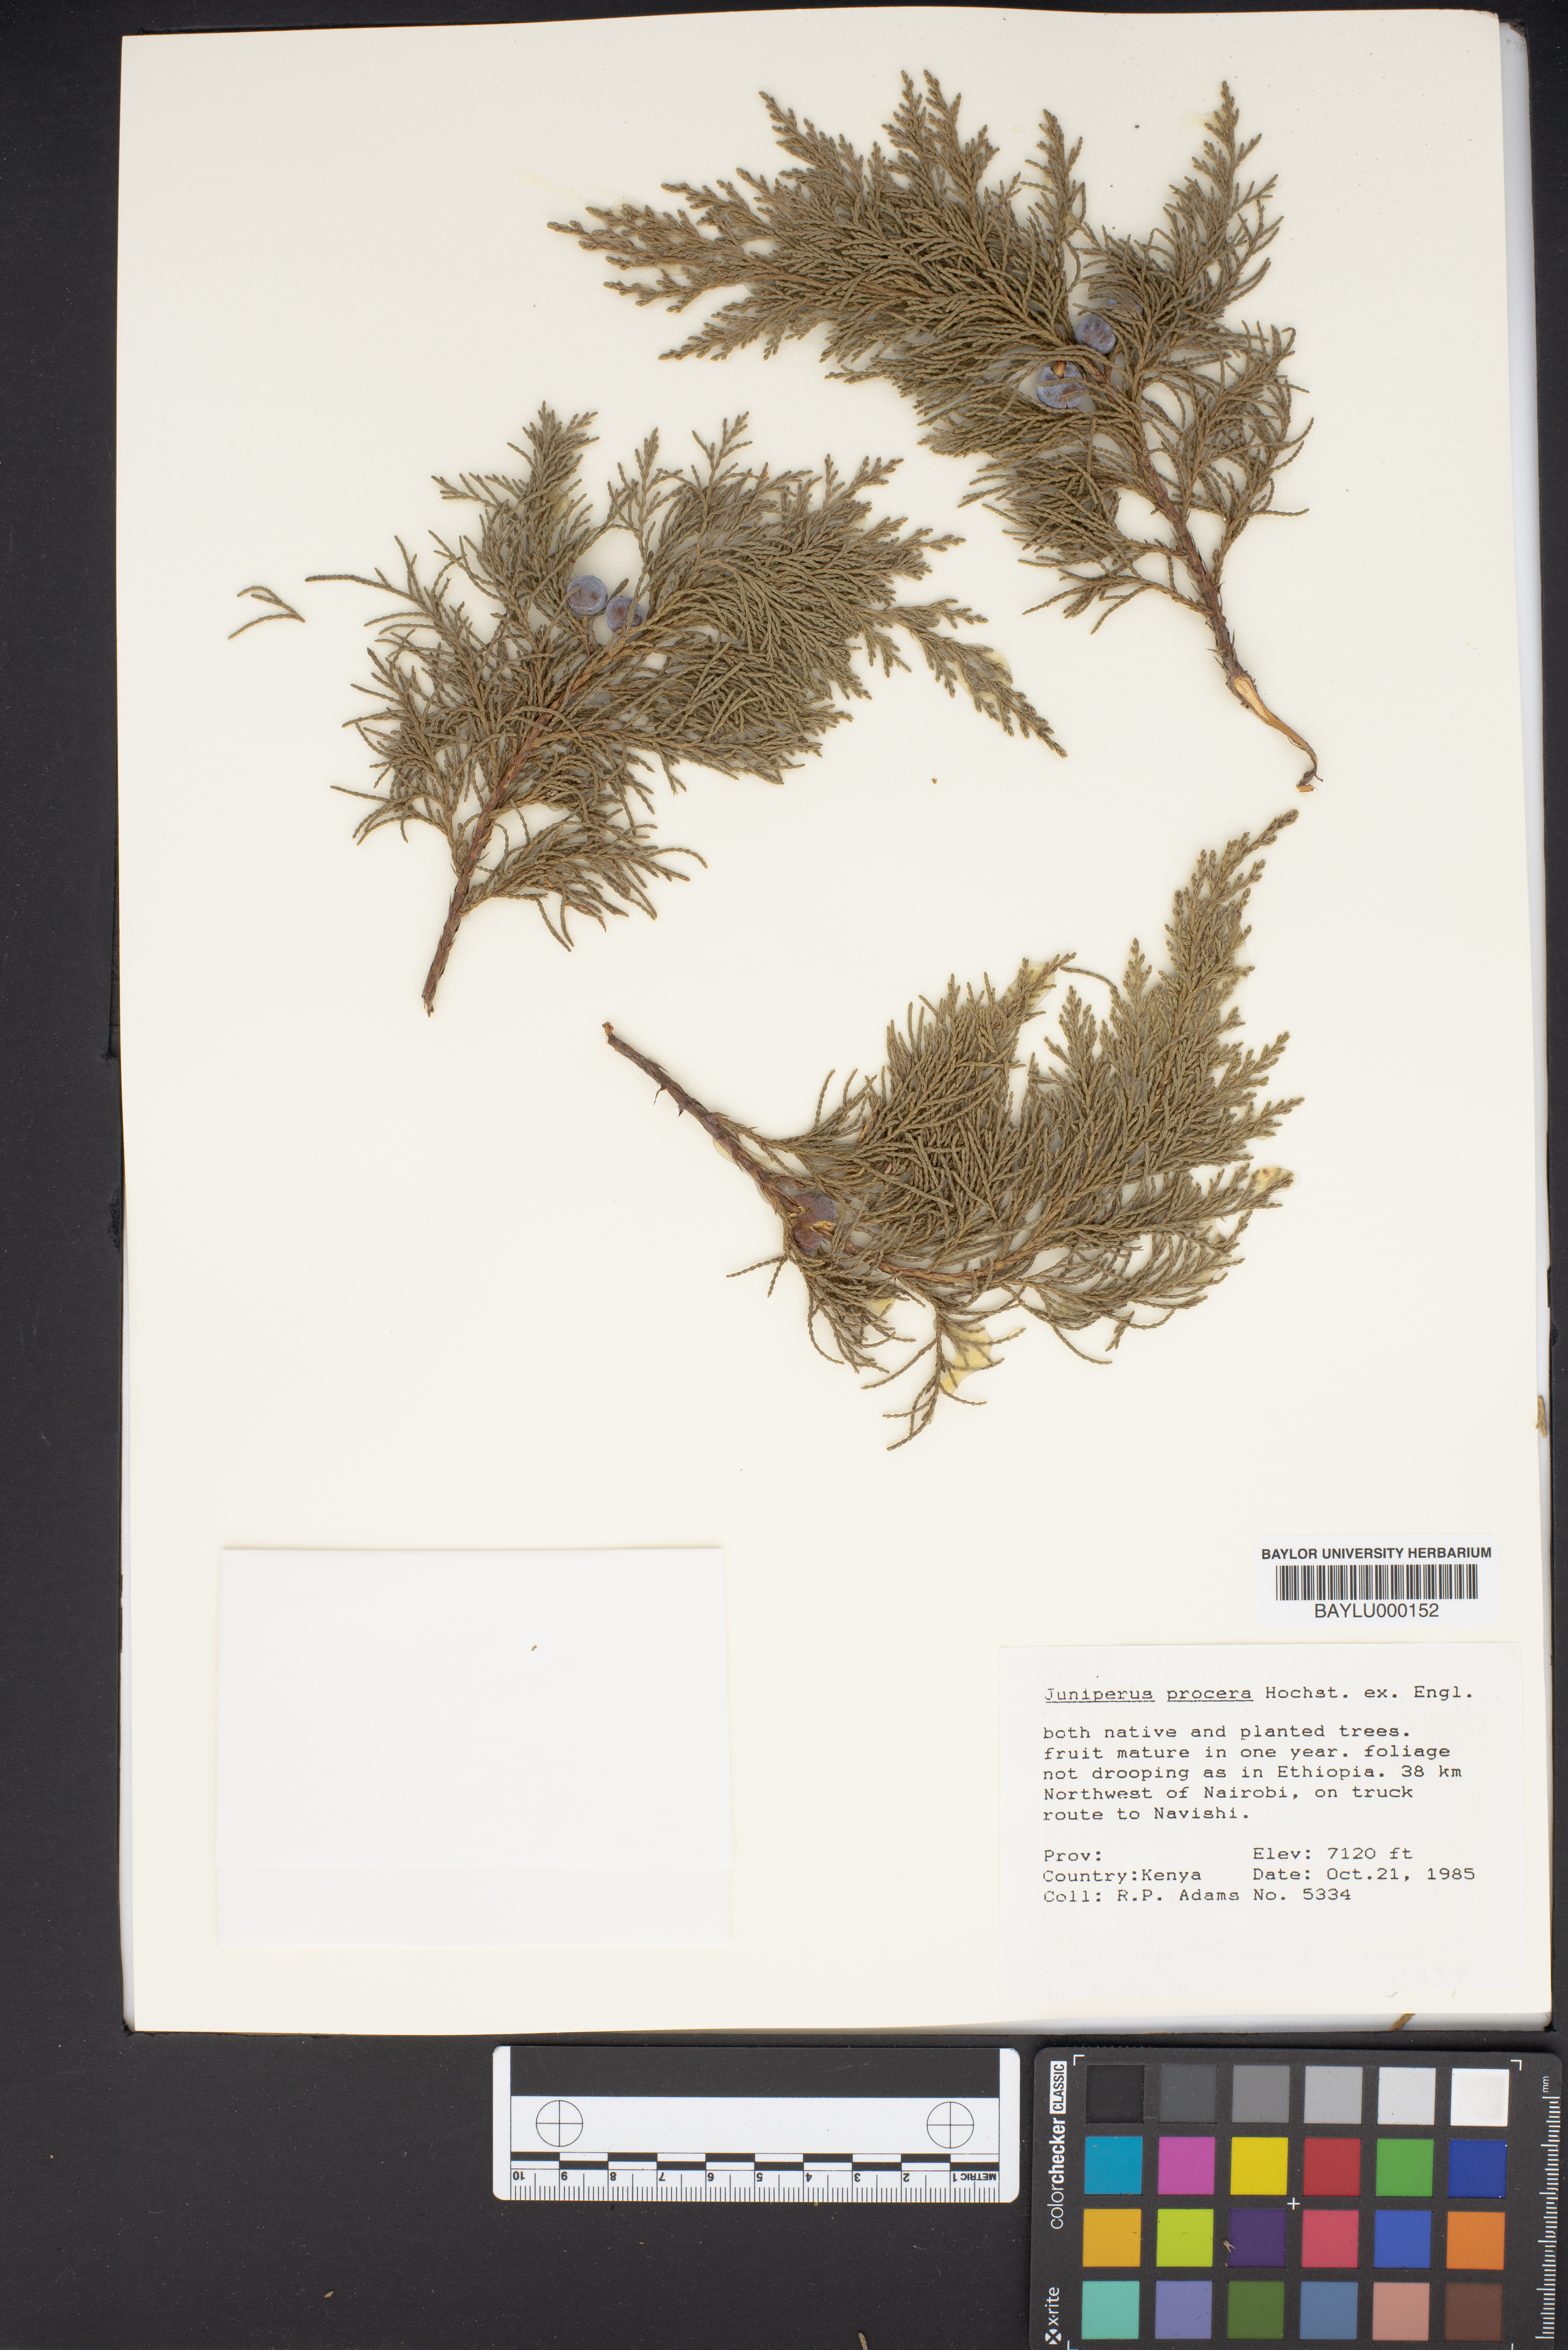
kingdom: Plantae
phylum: Tracheophyta
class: Pinopsida
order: Pinales
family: Cupressaceae
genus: Juniperus
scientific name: Juniperus procera
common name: African juniper
